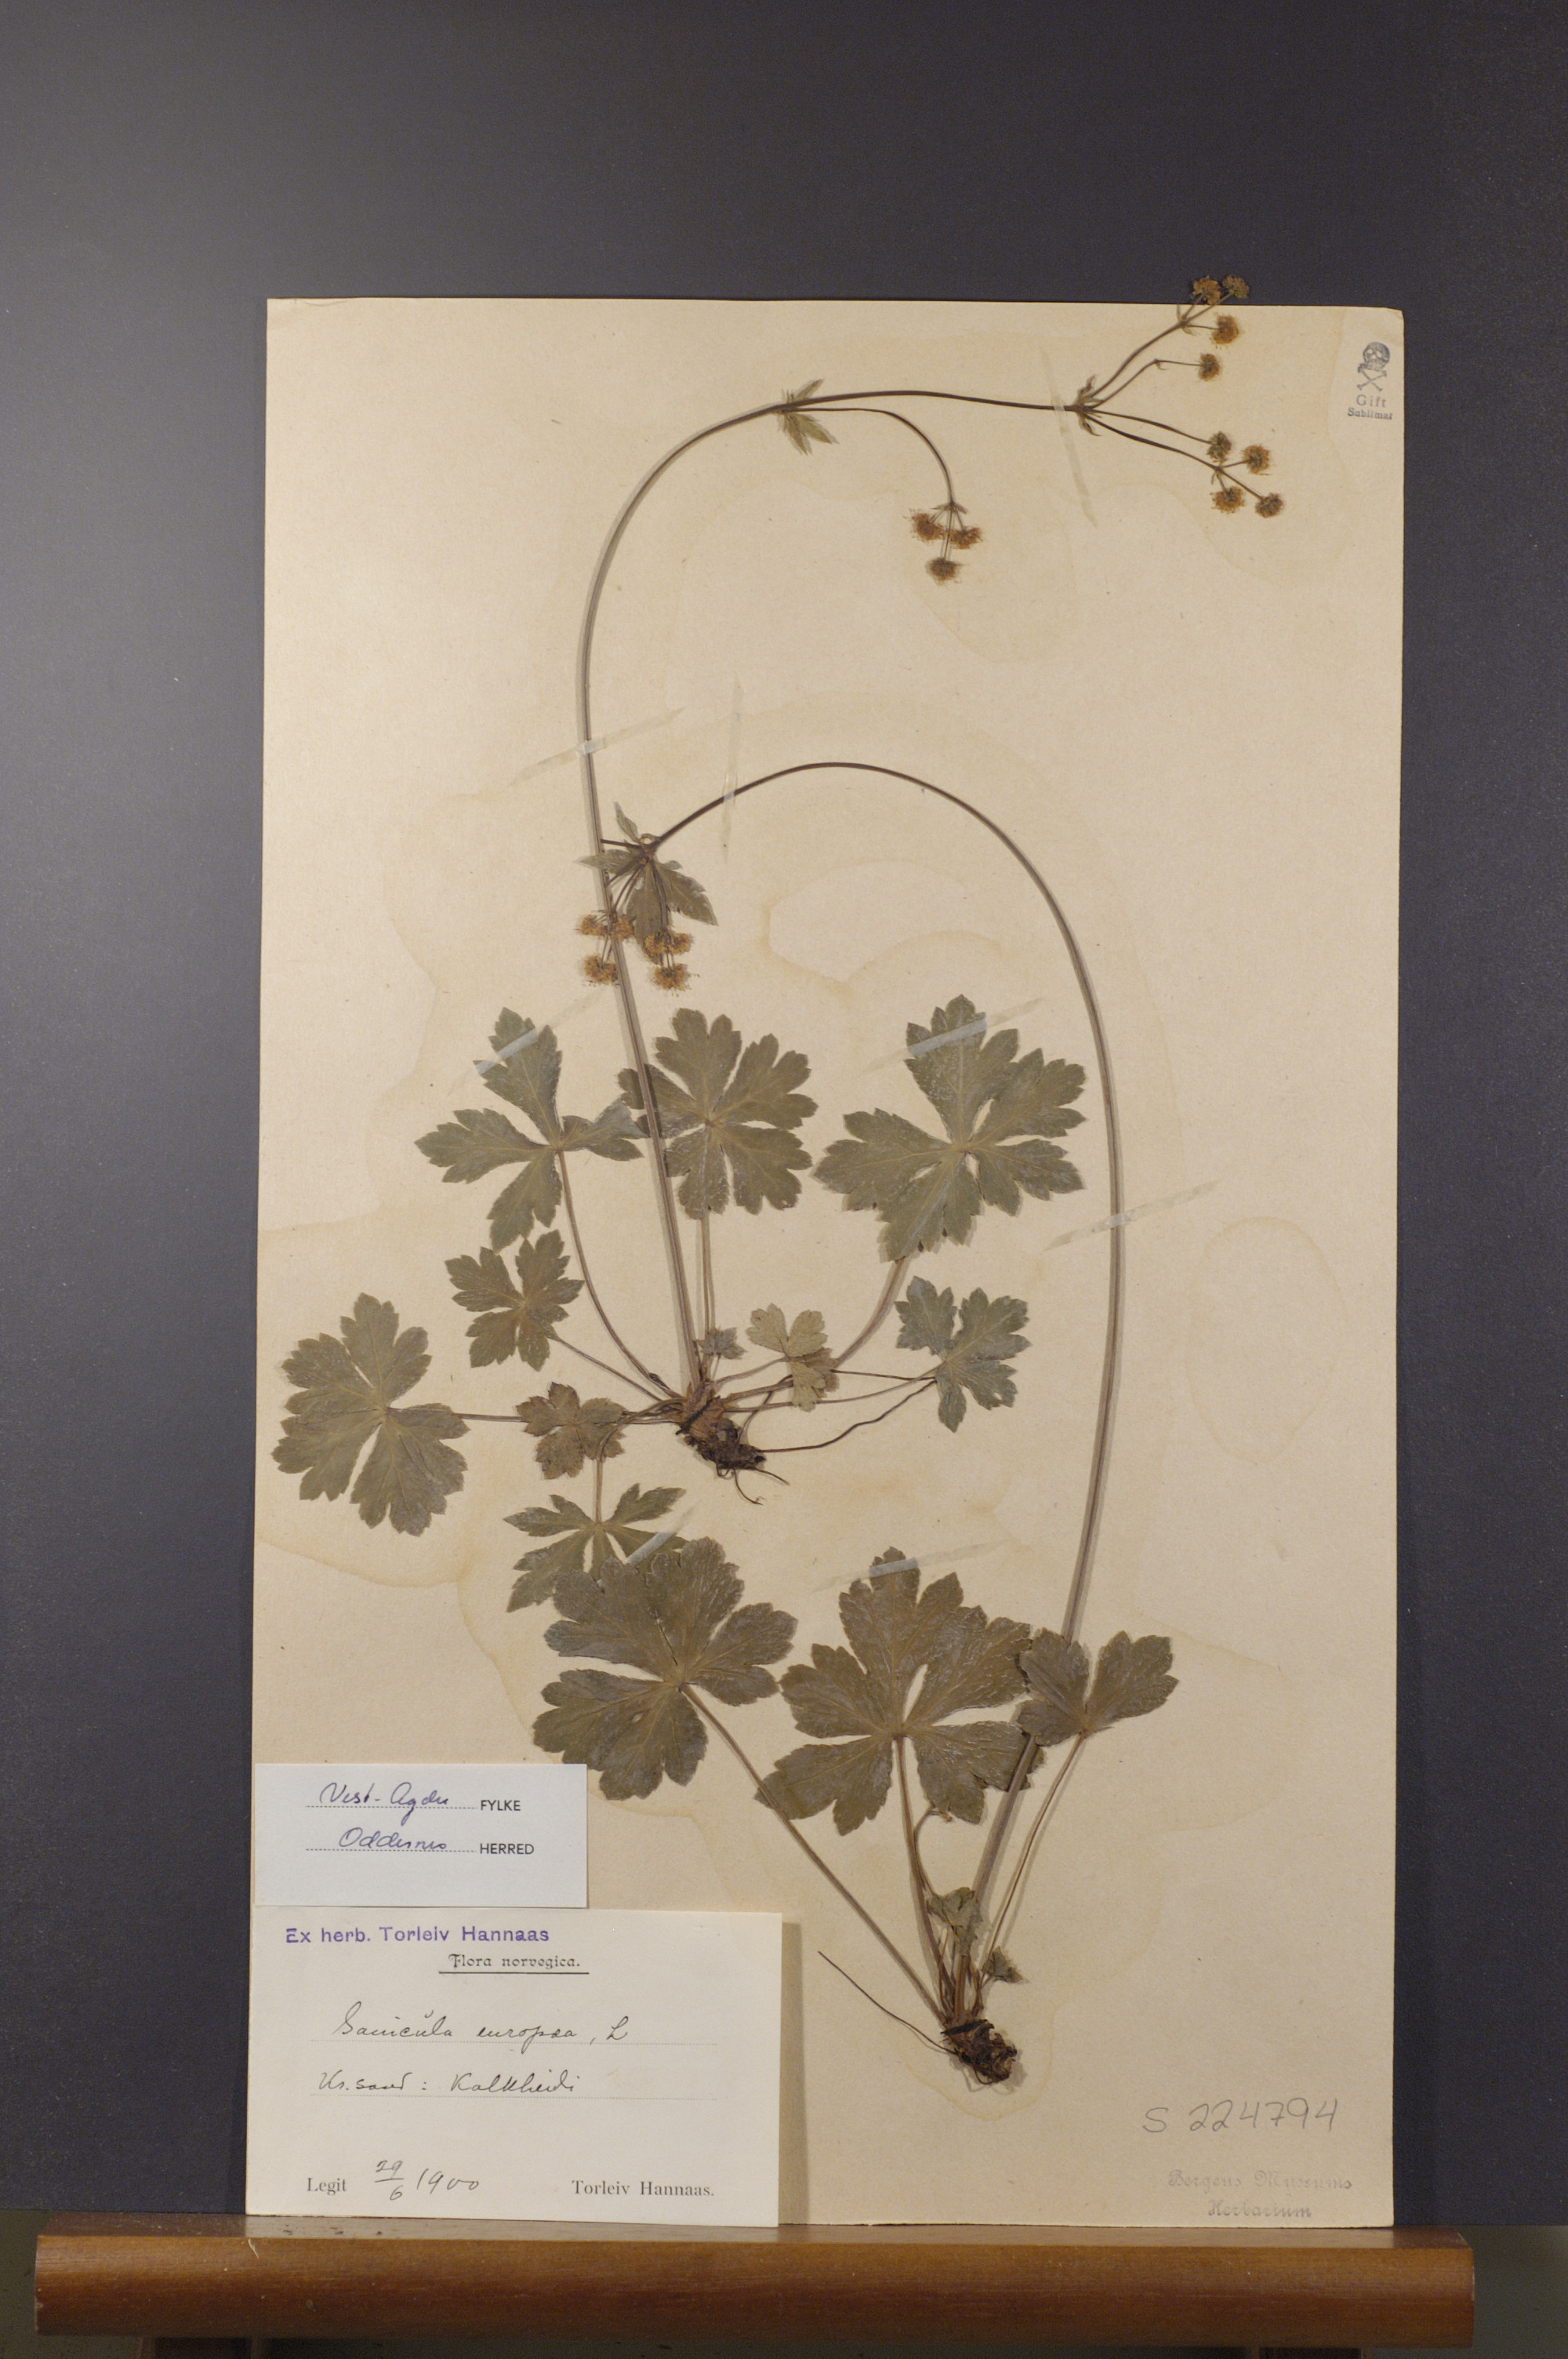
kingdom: Plantae
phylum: Tracheophyta
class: Magnoliopsida
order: Apiales
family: Apiaceae
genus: Sanicula
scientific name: Sanicula europaea
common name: Sanicle
